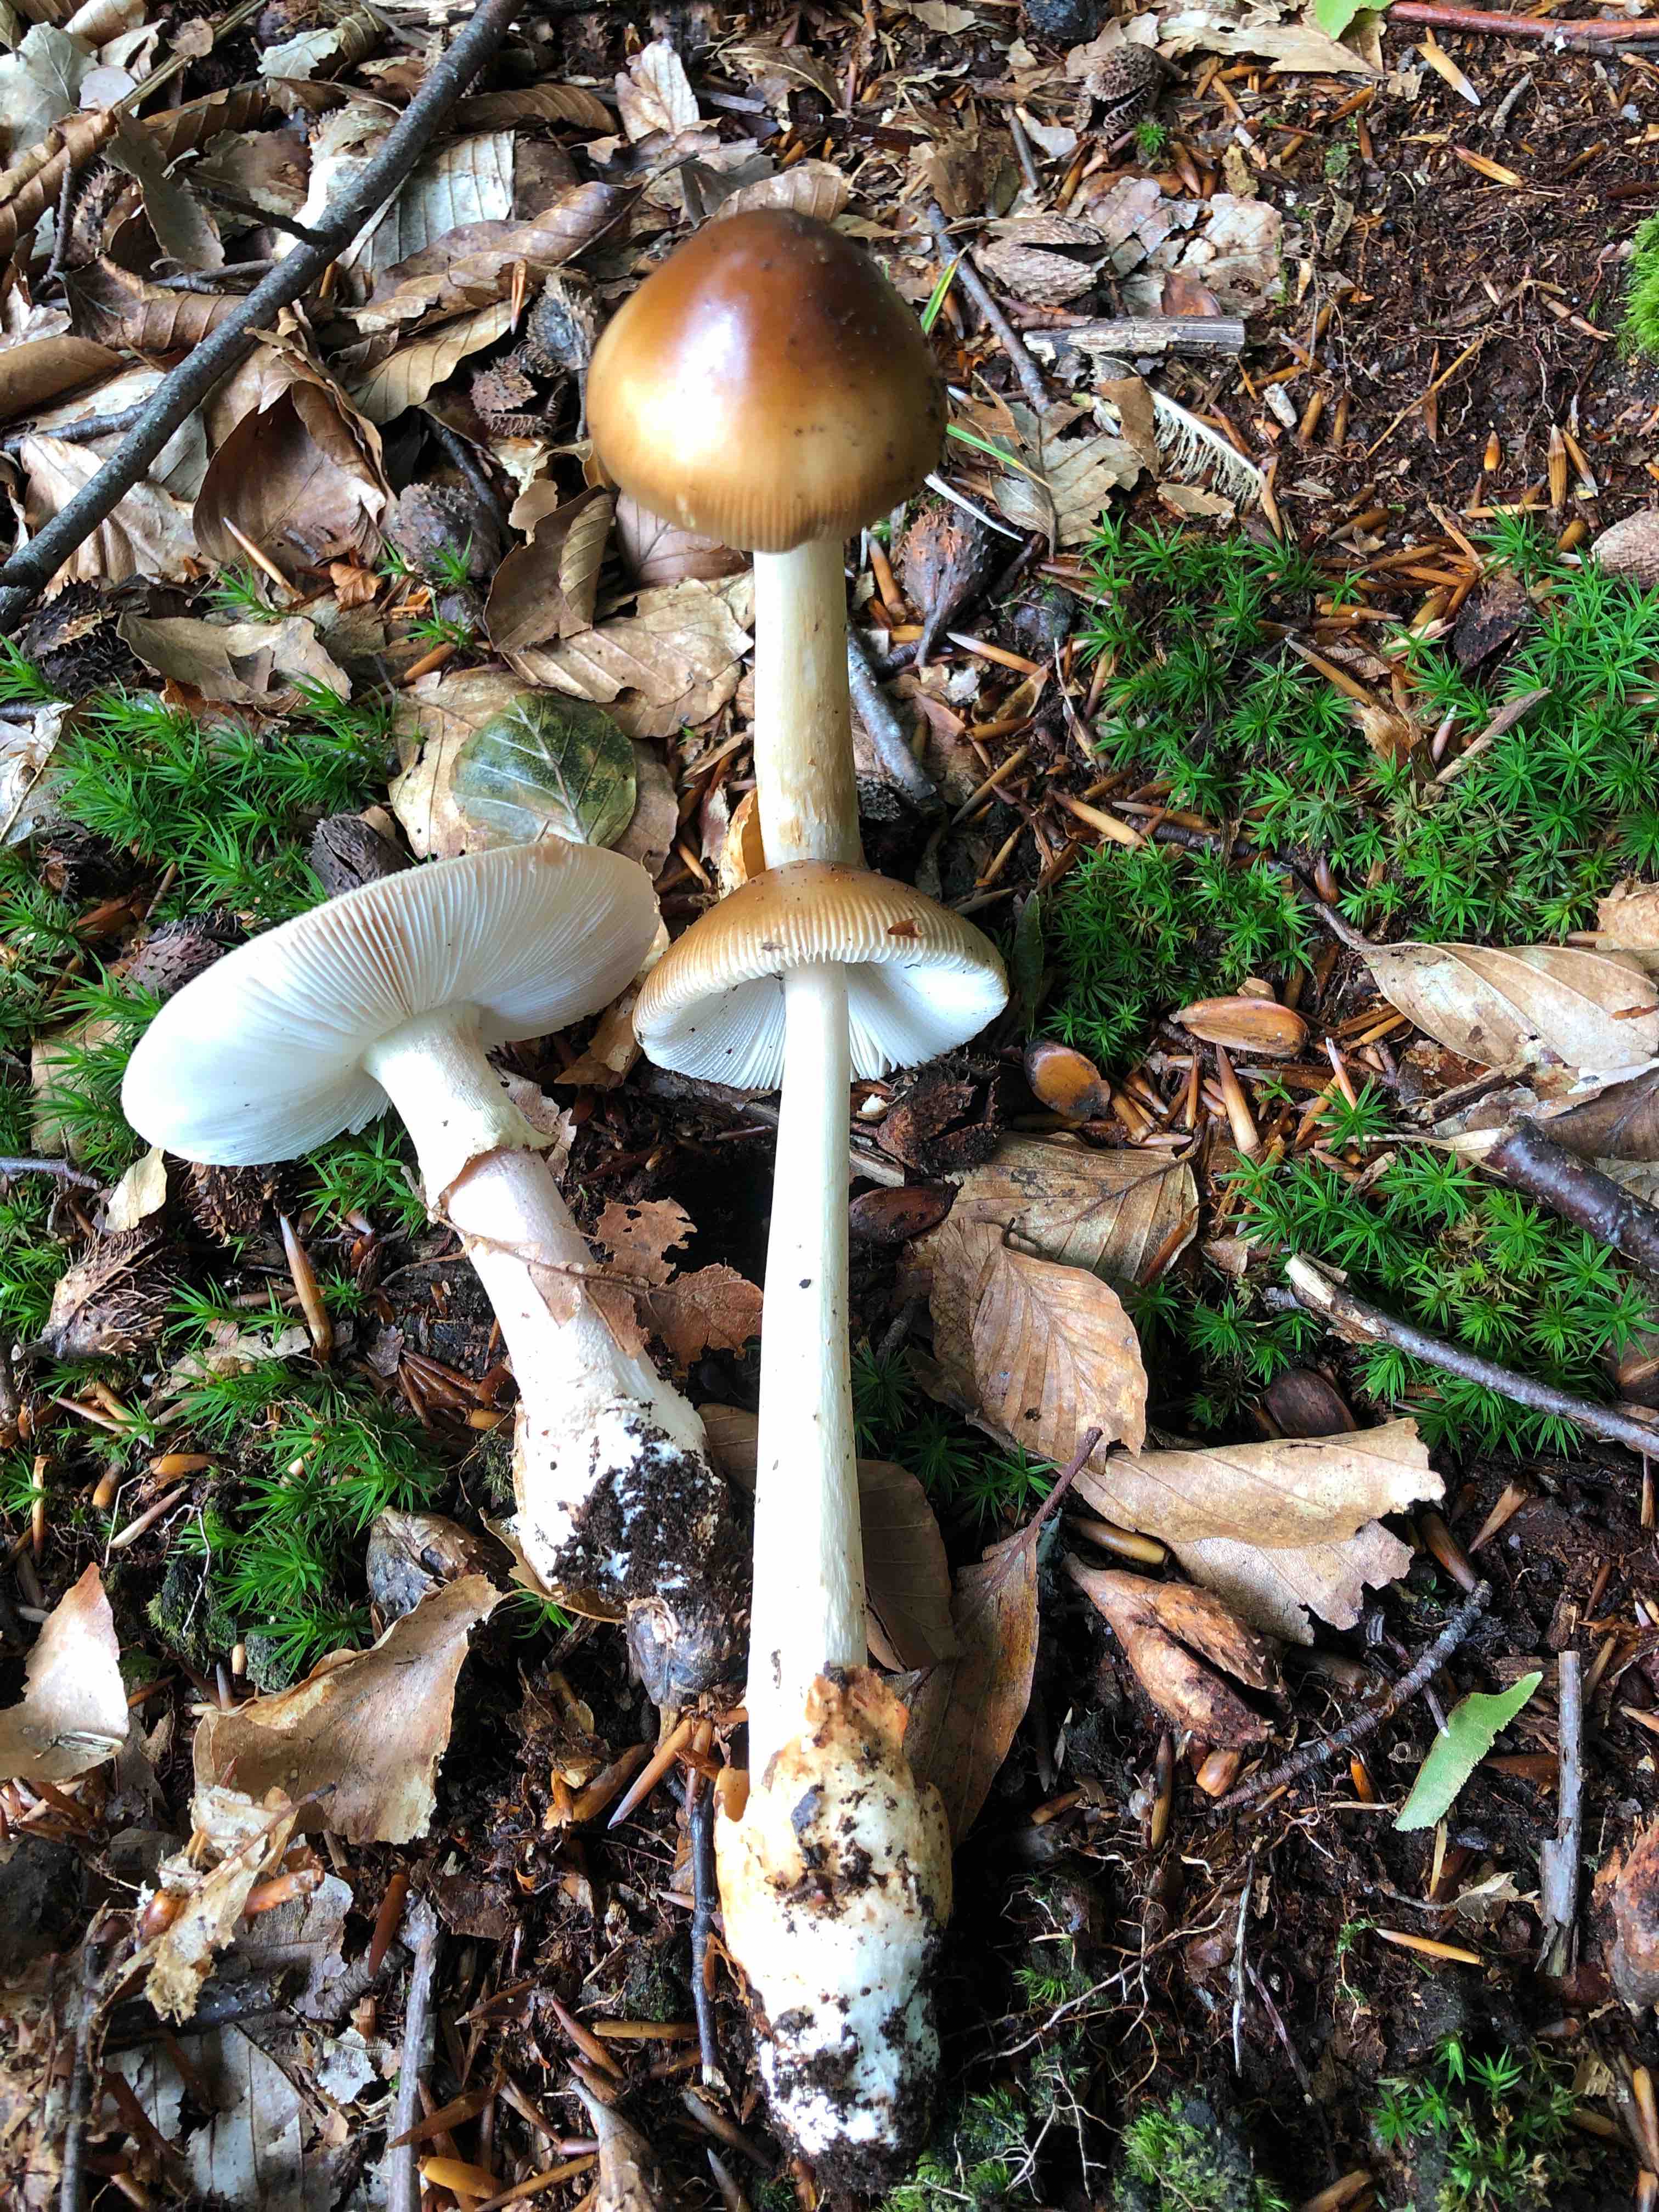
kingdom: Fungi
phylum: Basidiomycota
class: Agaricomycetes
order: Agaricales
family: Amanitaceae
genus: Amanita
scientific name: Amanita fulva
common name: brun kam-fluesvamp
